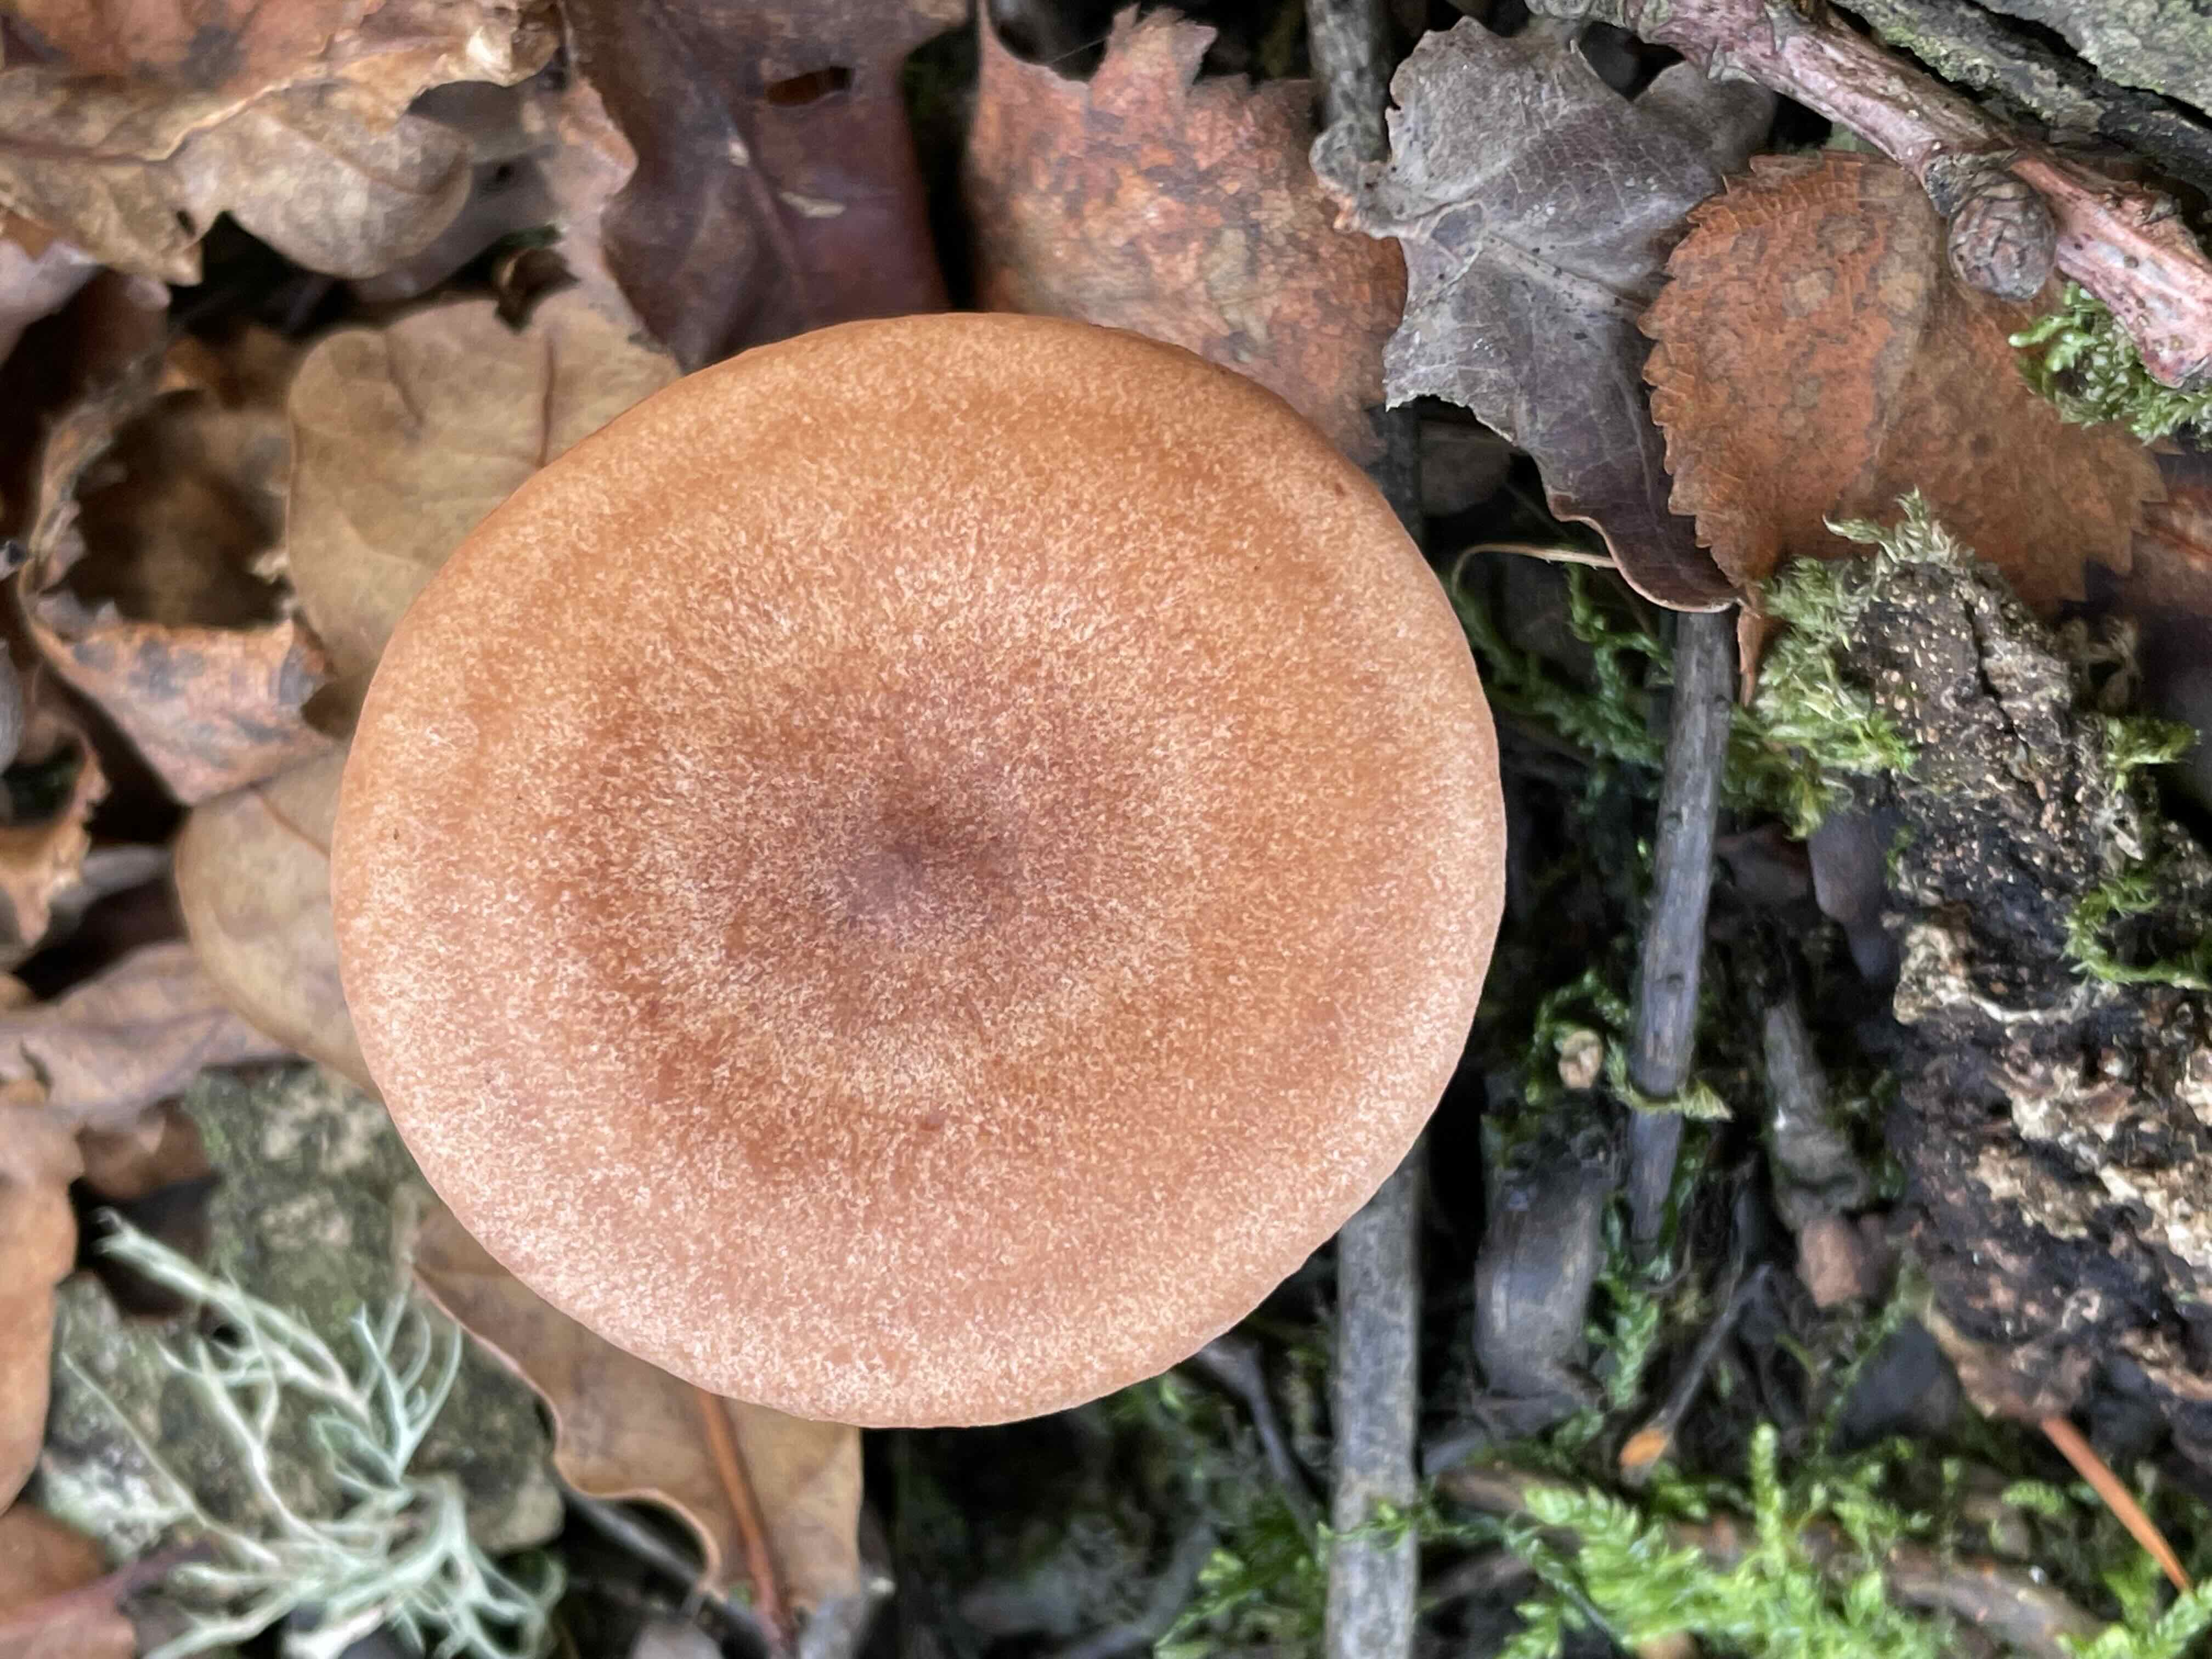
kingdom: Fungi
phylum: Basidiomycota
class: Agaricomycetes
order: Russulales
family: Russulaceae
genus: Lactarius
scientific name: Lactarius quietus
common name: ege-mælkehat
